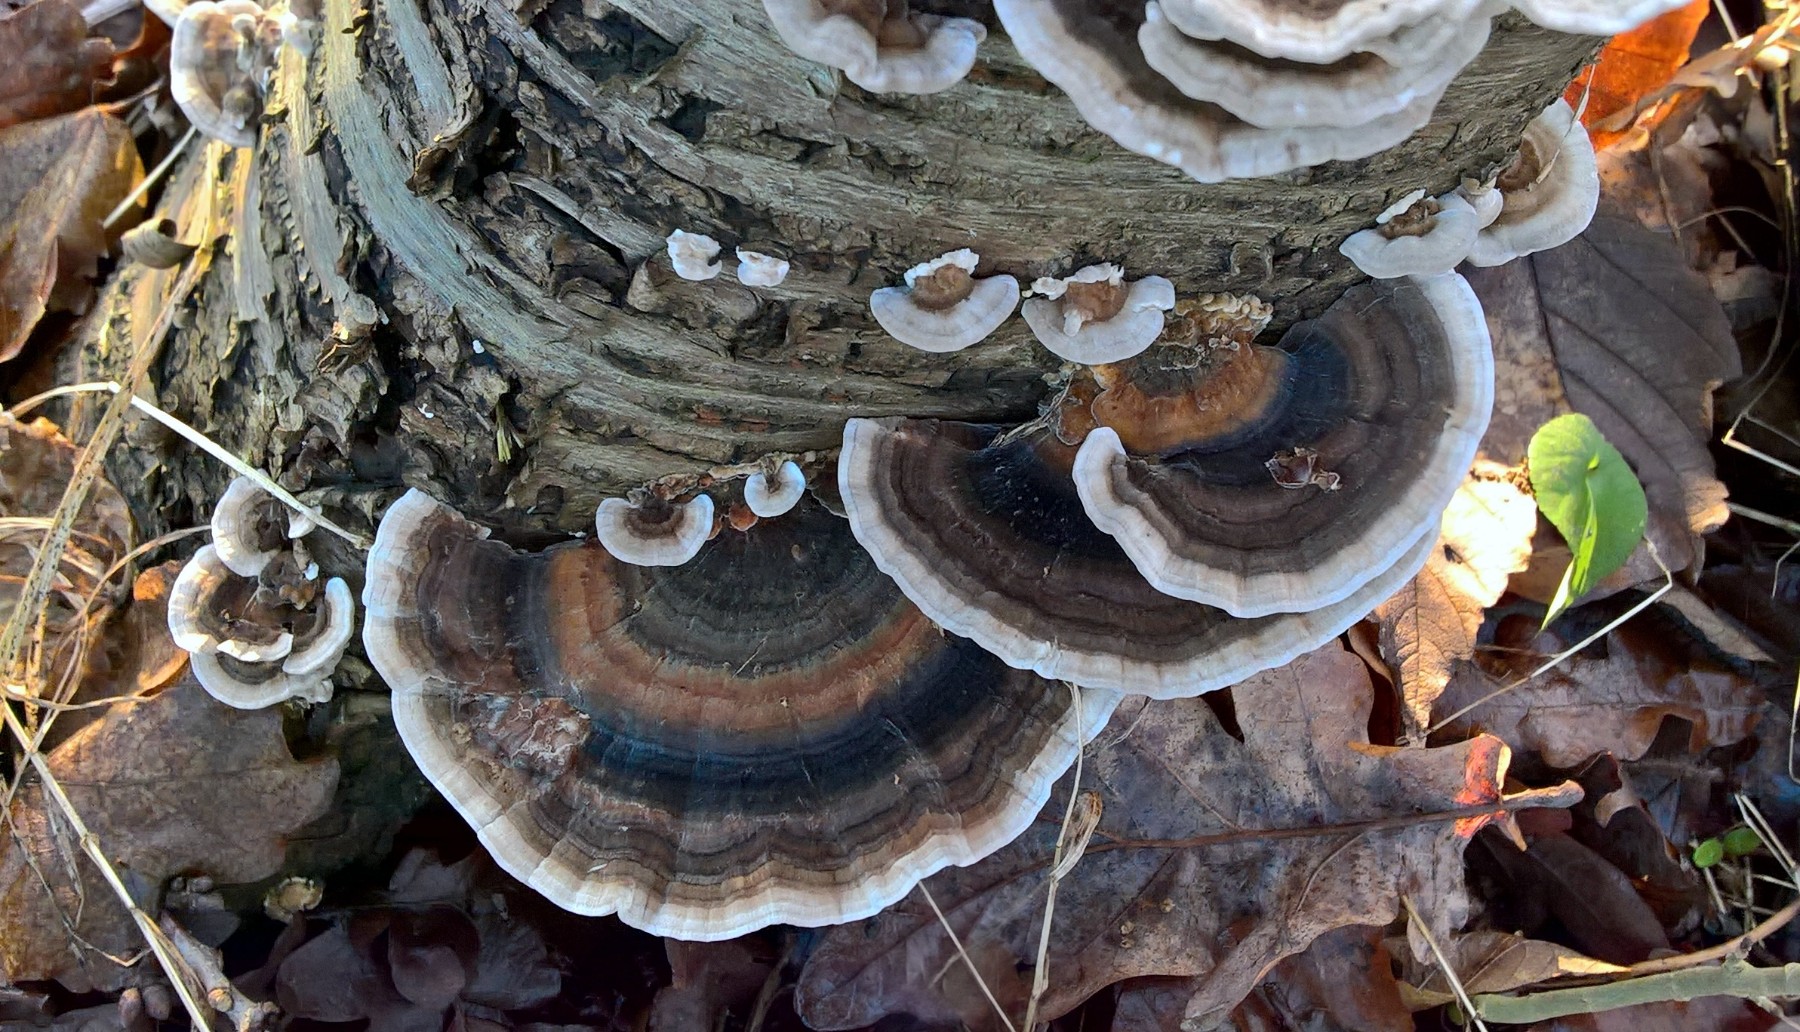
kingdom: Fungi
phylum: Basidiomycota
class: Agaricomycetes
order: Polyporales
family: Polyporaceae
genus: Trametes
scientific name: Trametes versicolor
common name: broget læderporesvamp
